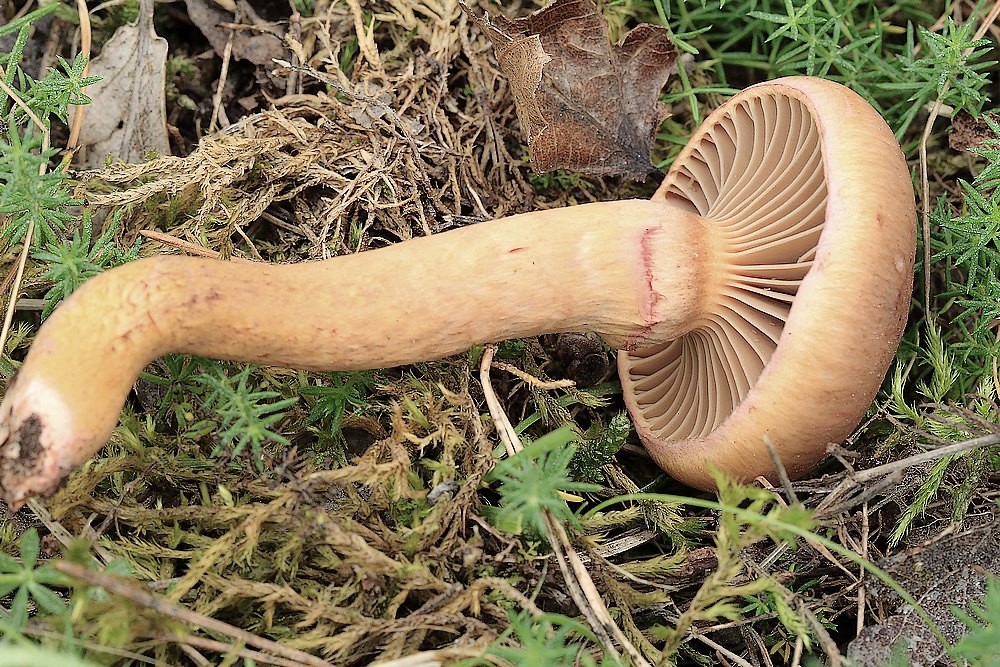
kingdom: Fungi
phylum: Basidiomycota
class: Agaricomycetes
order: Boletales
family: Gomphidiaceae
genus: Chroogomphus
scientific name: Chroogomphus
